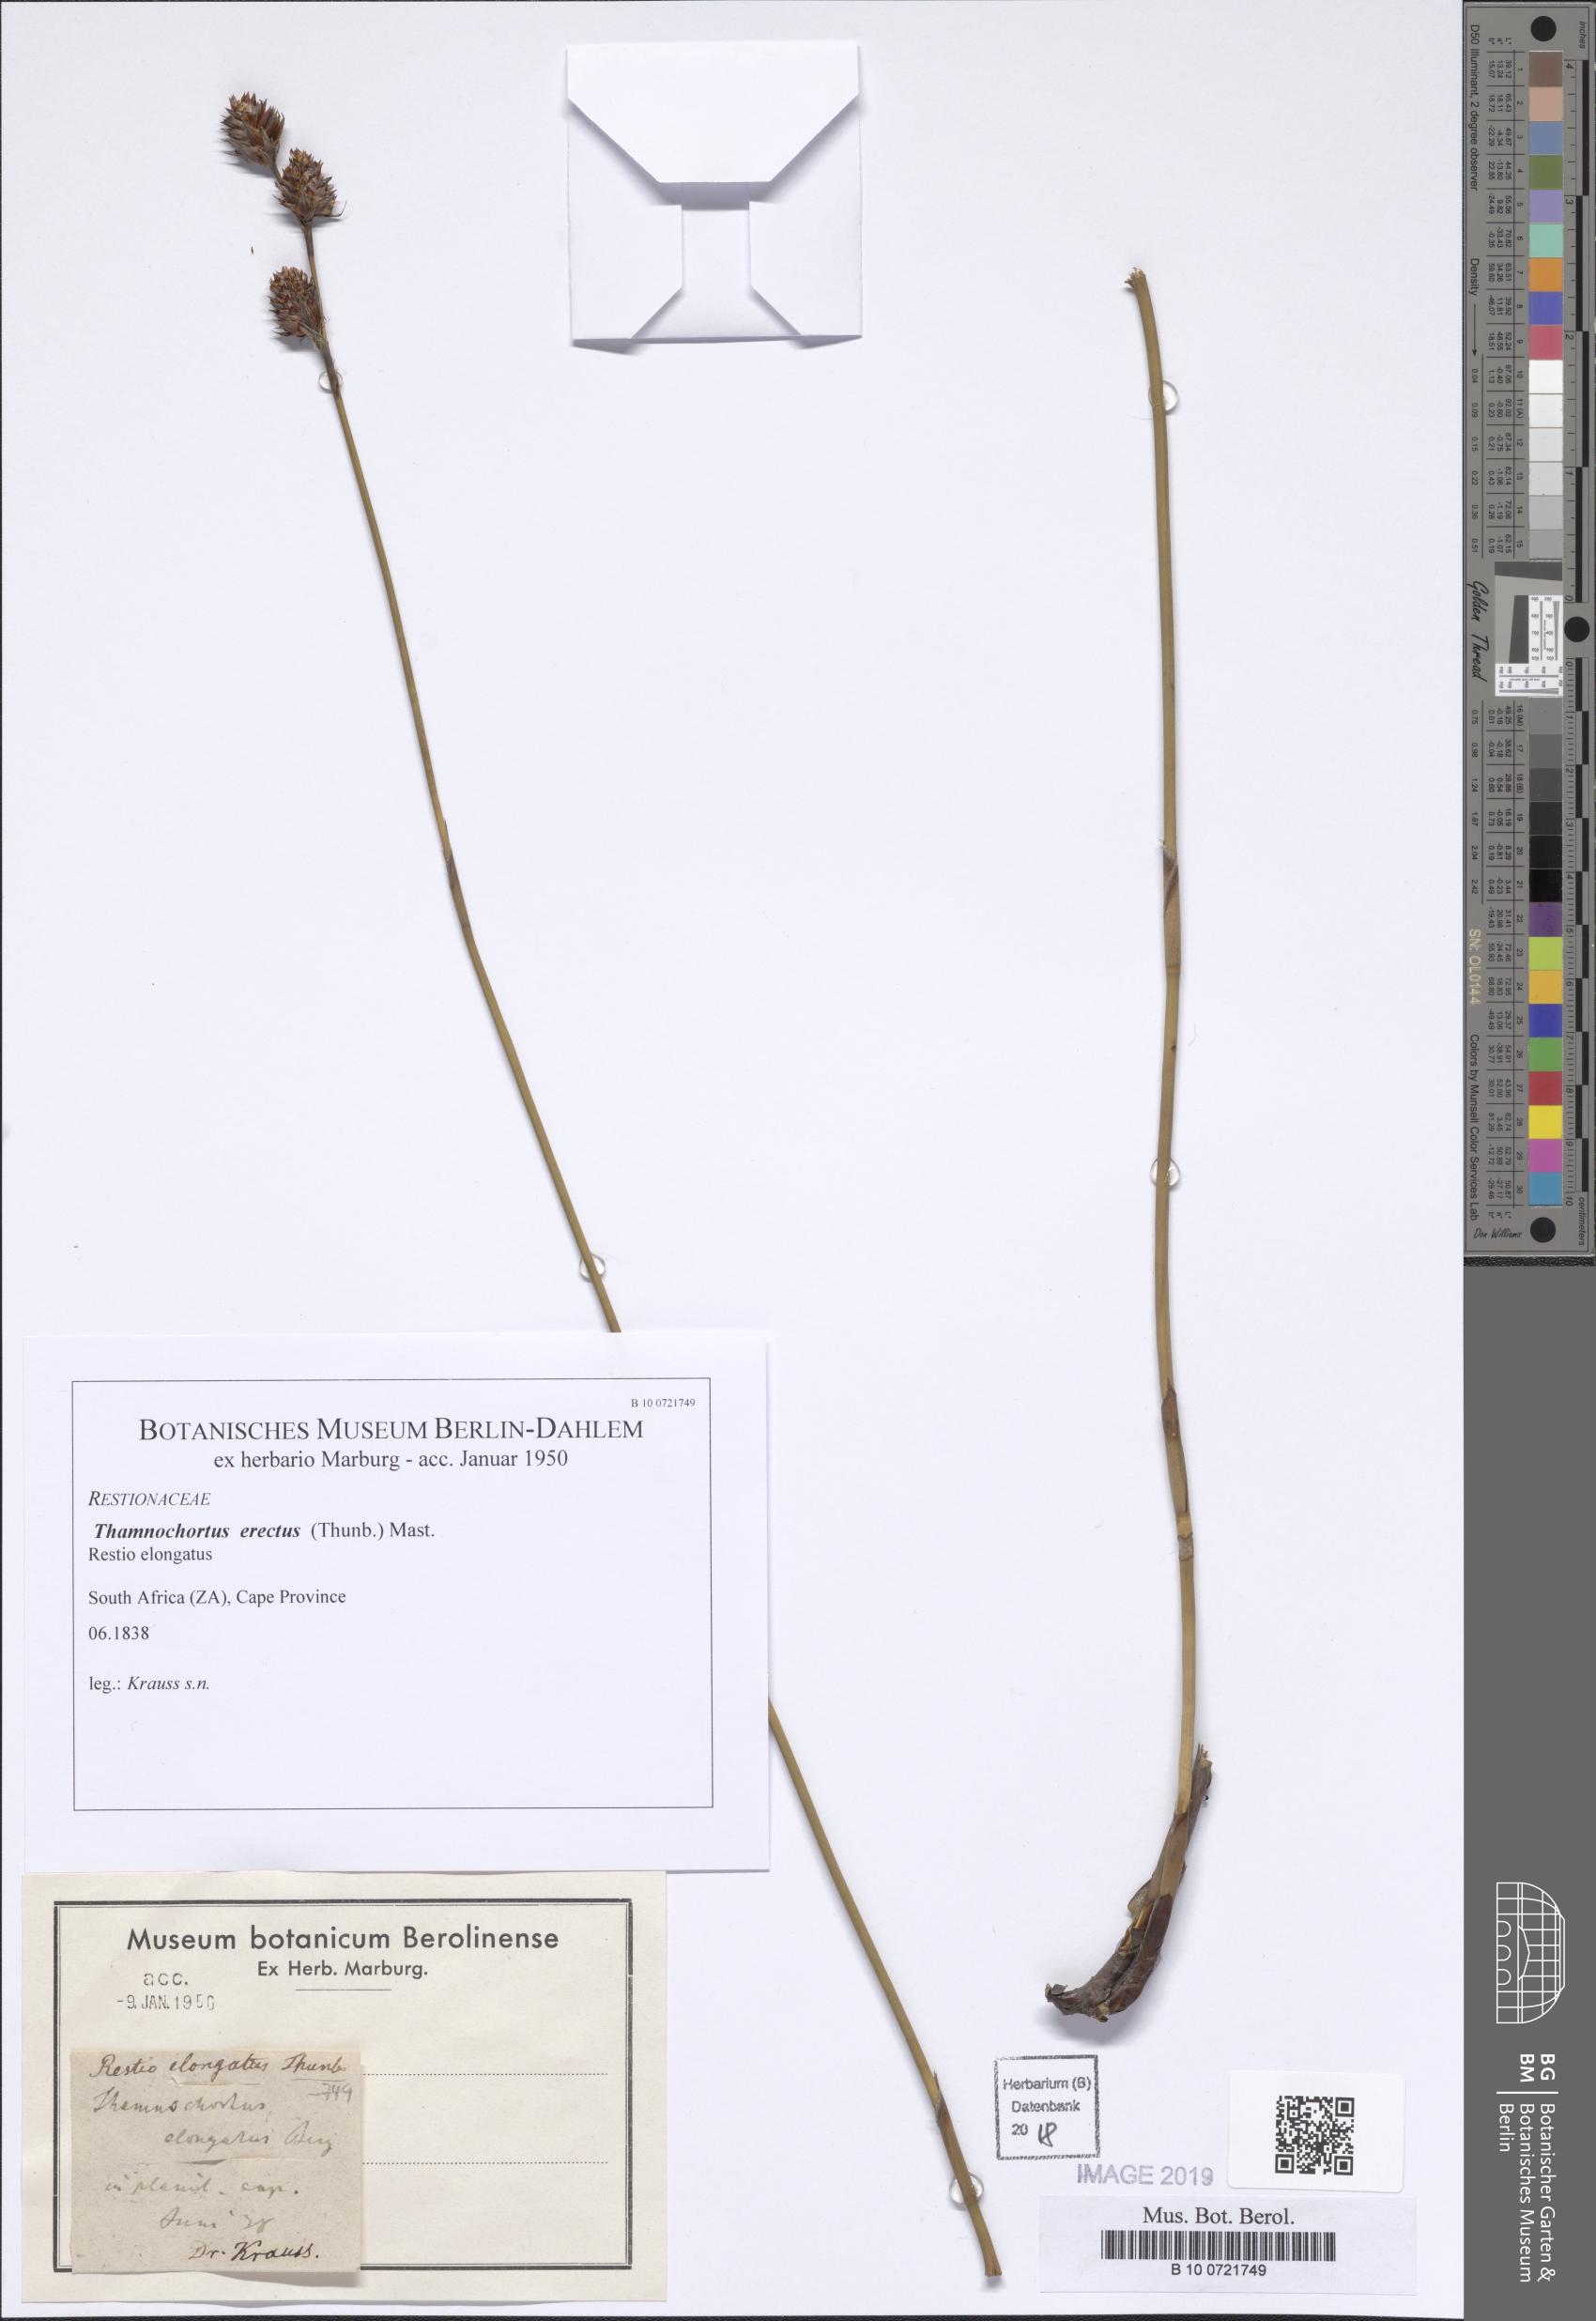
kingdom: Plantae
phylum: Tracheophyta
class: Liliopsida
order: Poales
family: Restionaceae
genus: Thamnochortus
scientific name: Thamnochortus erectus
